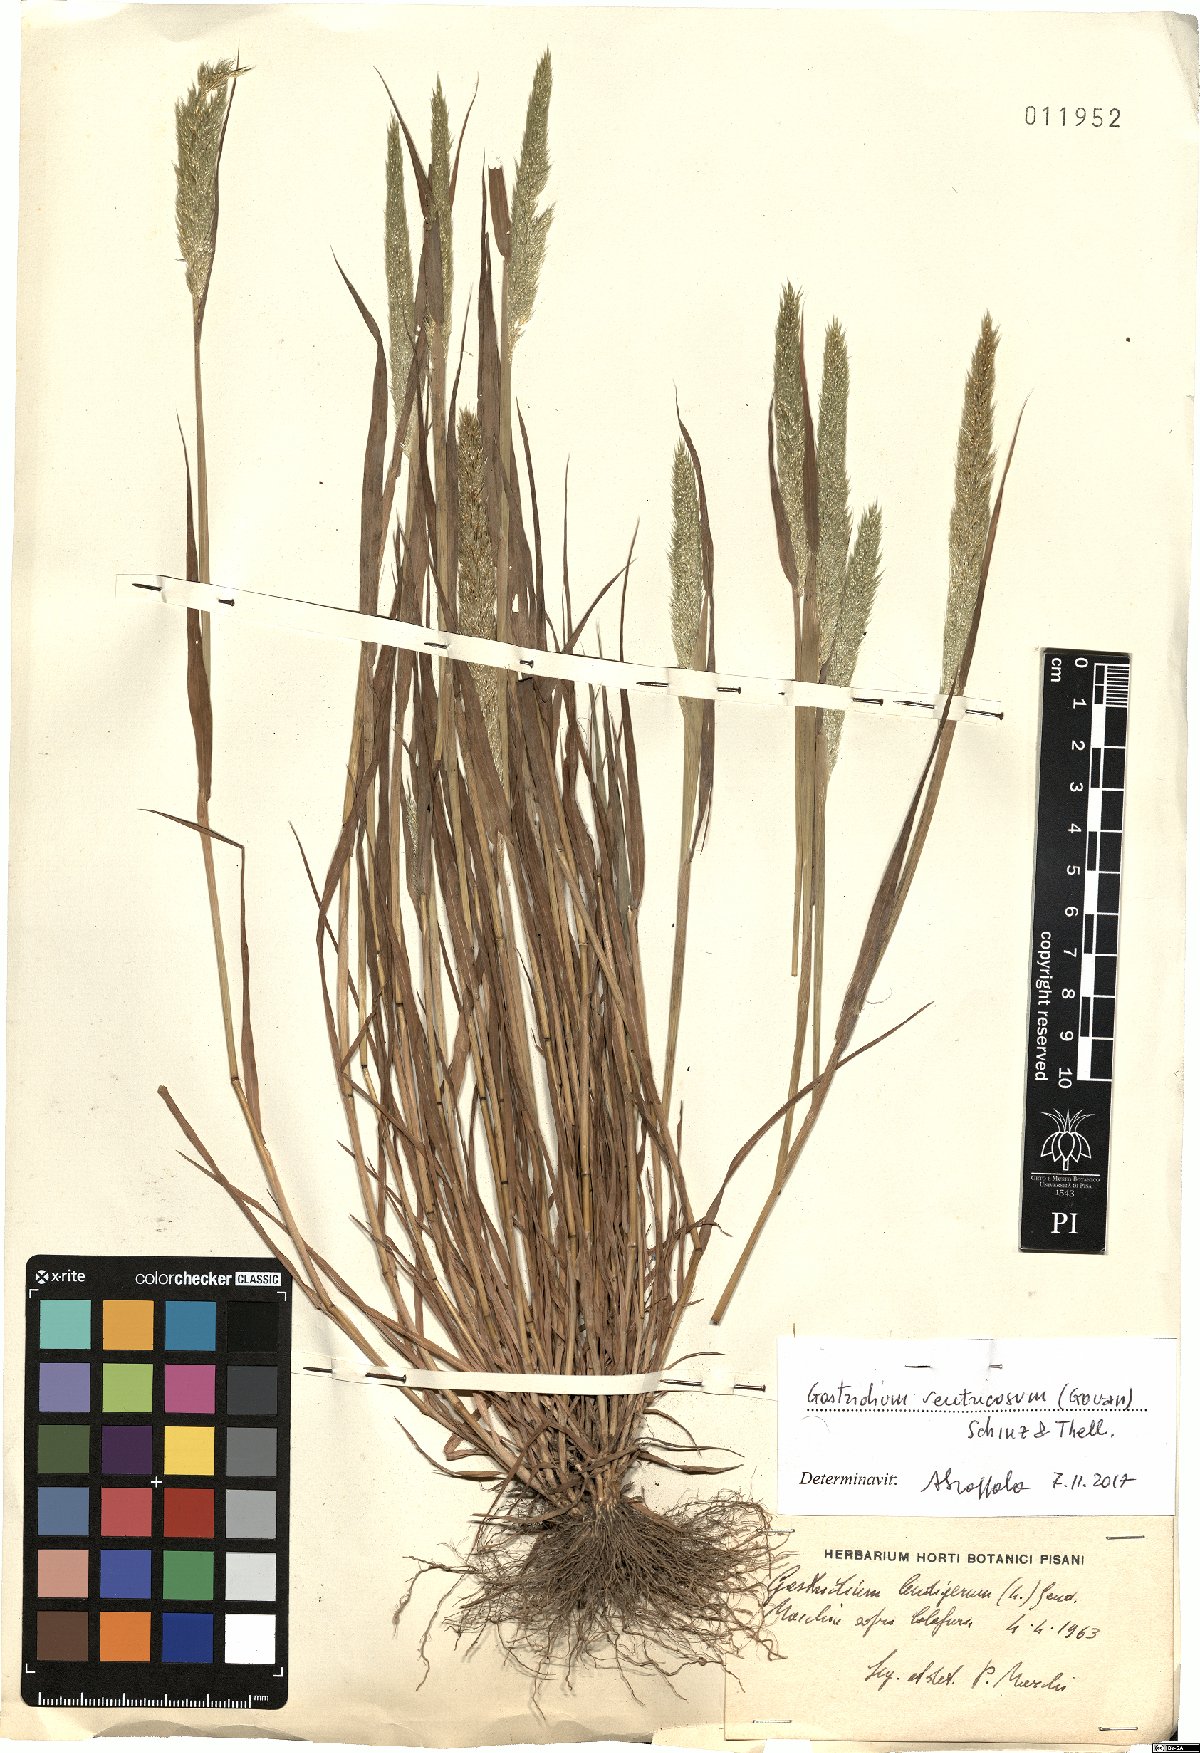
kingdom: Plantae
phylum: Tracheophyta
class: Liliopsida
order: Poales
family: Poaceae
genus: Gastridium
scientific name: Gastridium ventricosum
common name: Nit-grass
